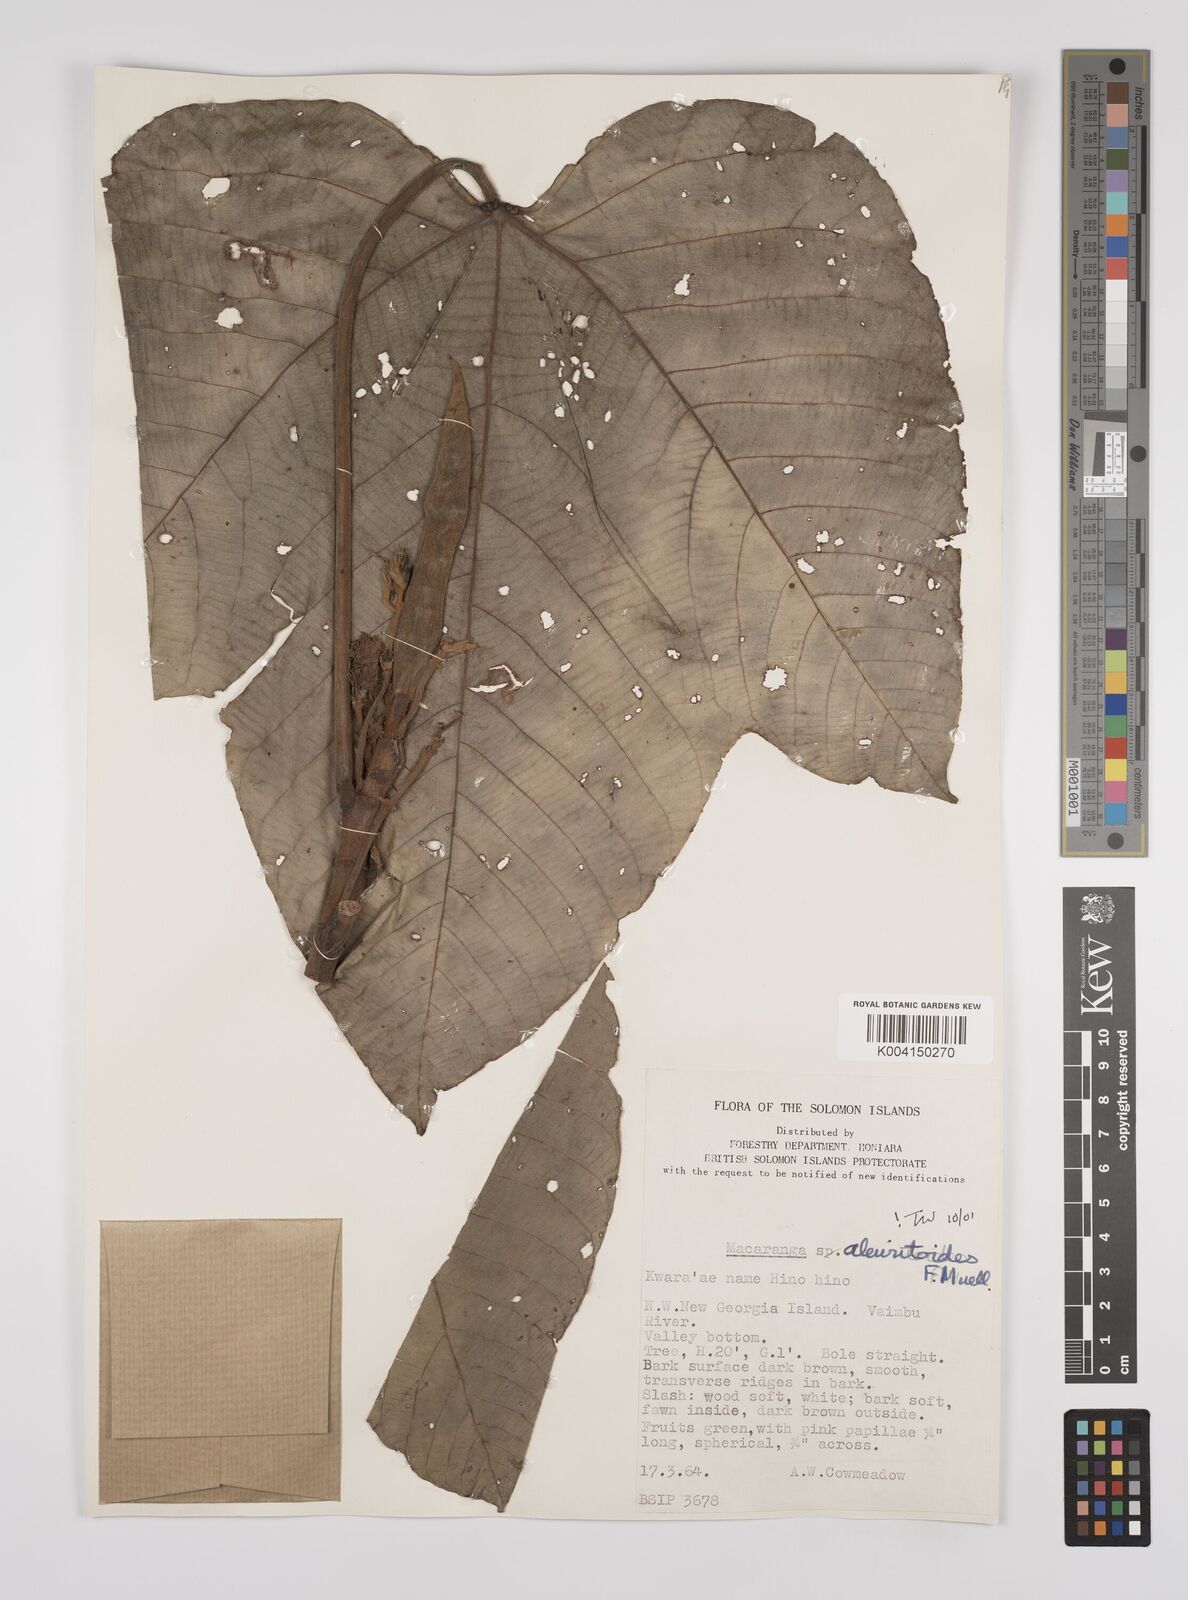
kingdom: Plantae
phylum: Tracheophyta
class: Magnoliopsida
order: Malpighiales
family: Euphorbiaceae
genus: Macaranga
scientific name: Macaranga aleuritoides
